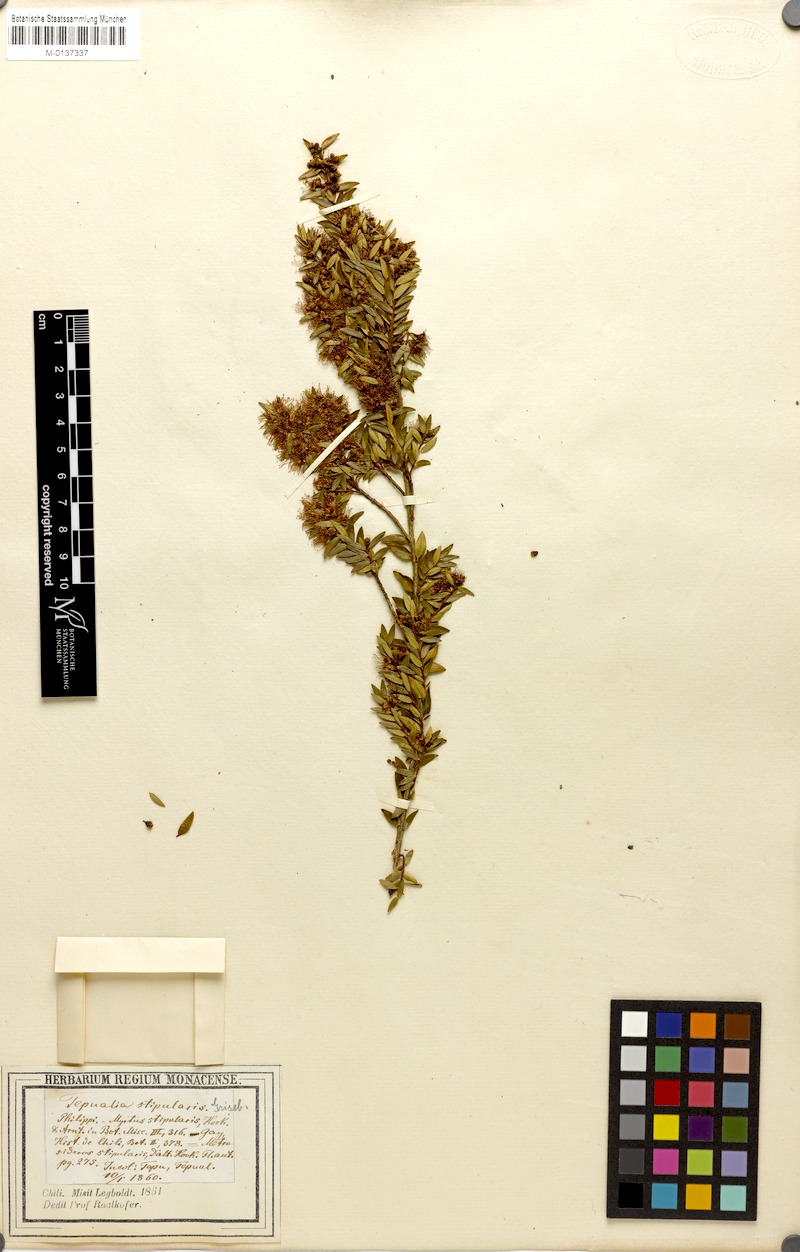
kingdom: Plantae
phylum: Tracheophyta
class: Magnoliopsida
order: Myrtales
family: Myrtaceae
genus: Tepualia
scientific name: Tepualia stipularis
